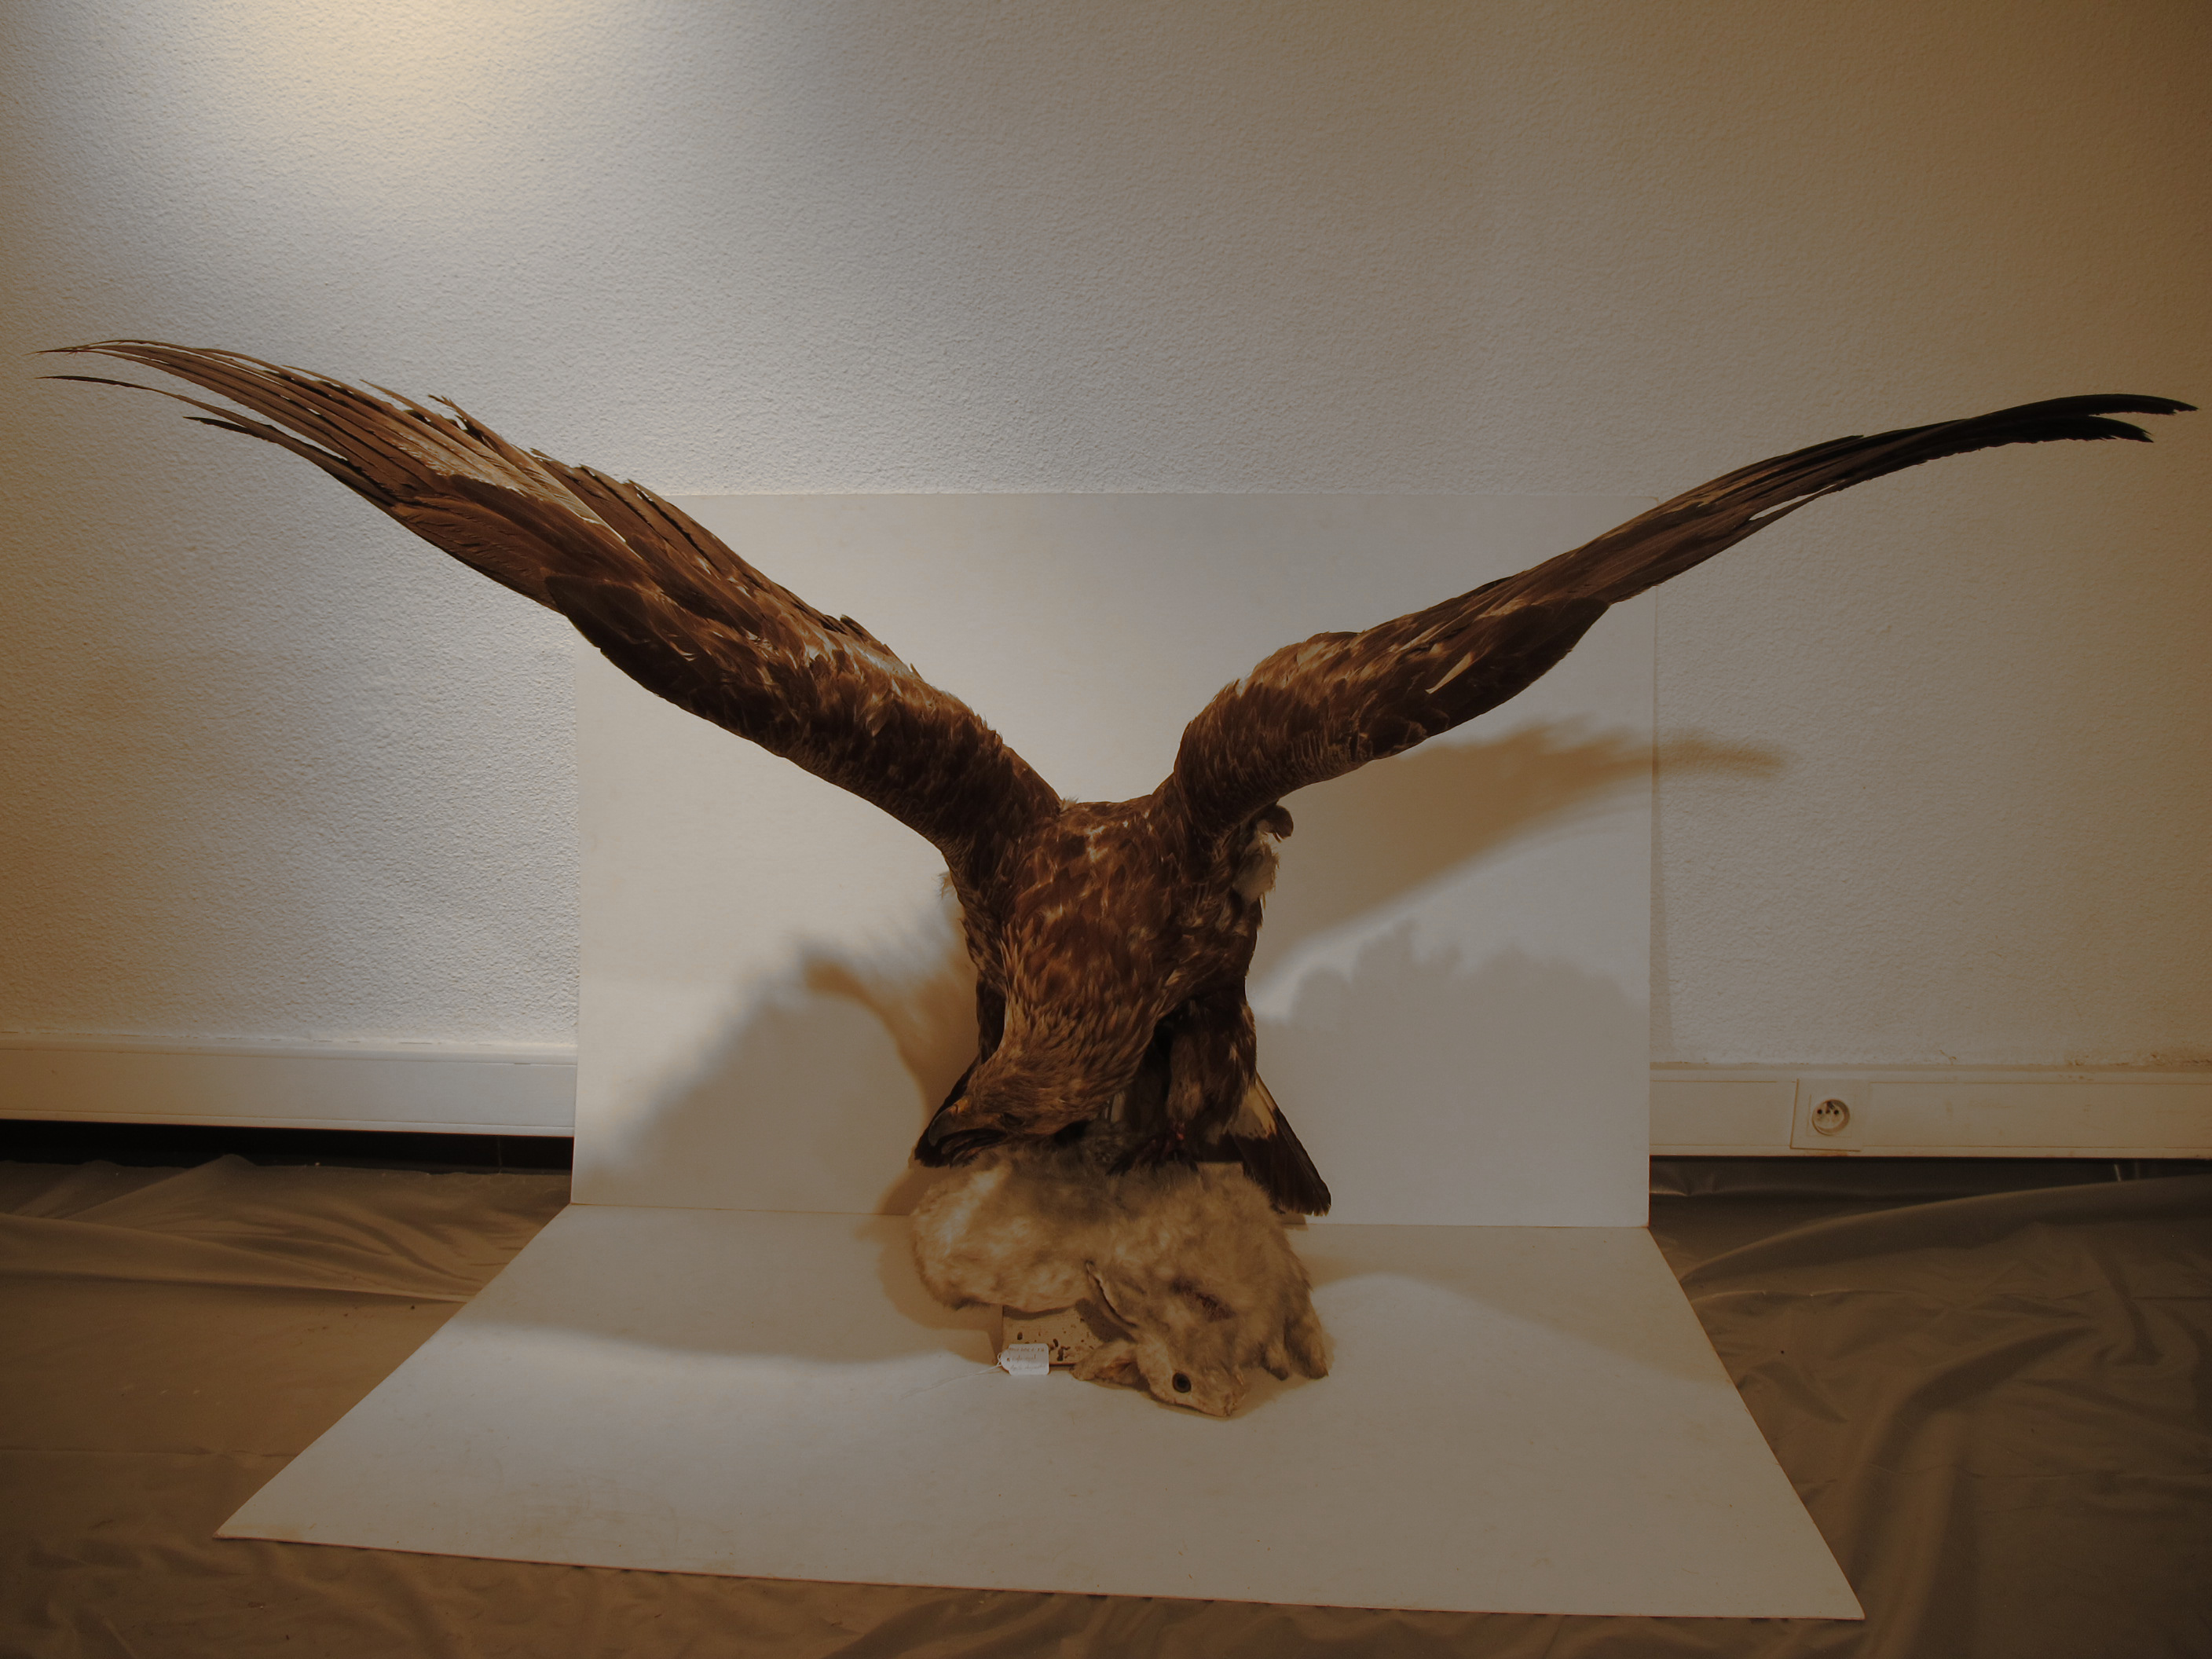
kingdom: Animalia
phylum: Chordata
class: Aves
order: Accipitriformes
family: Accipitridae
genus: Aquila
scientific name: Aquila chrysaetos
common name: Golden Eagle
